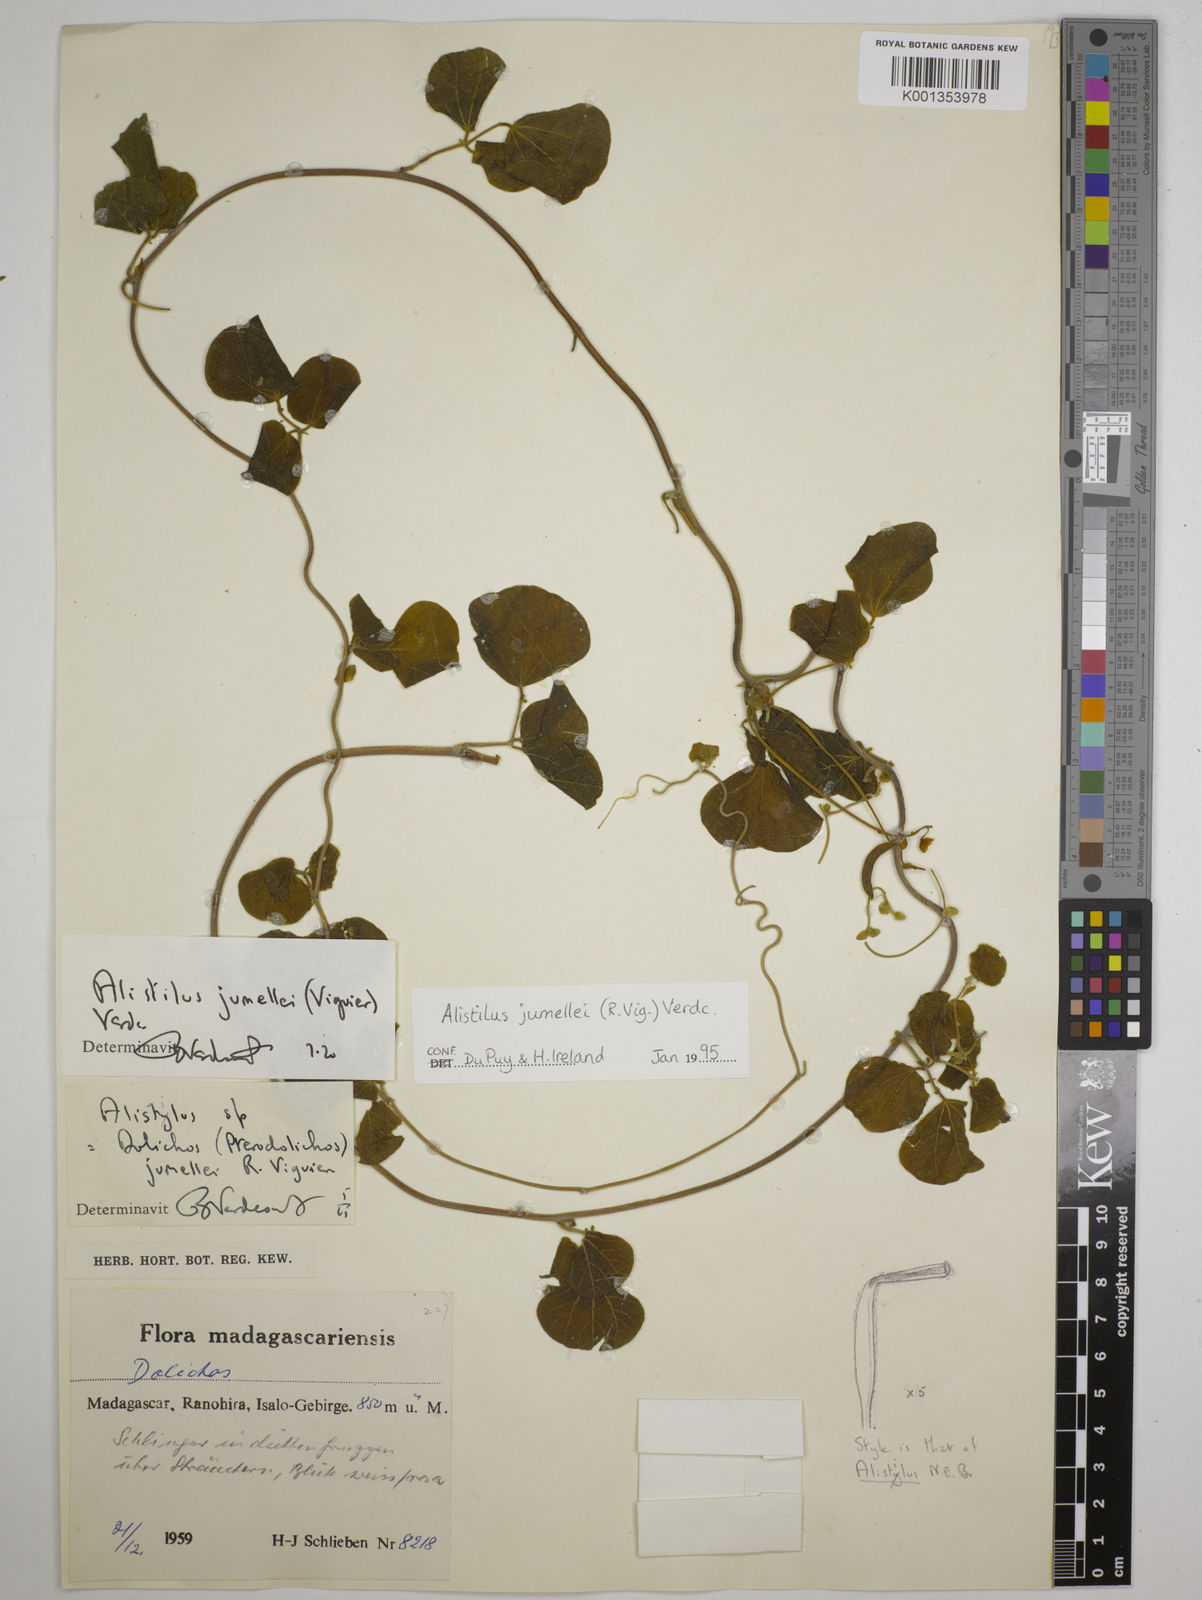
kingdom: Plantae
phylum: Tracheophyta
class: Magnoliopsida
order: Fabales
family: Fabaceae
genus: Alistilus
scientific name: Alistilus jumellei
